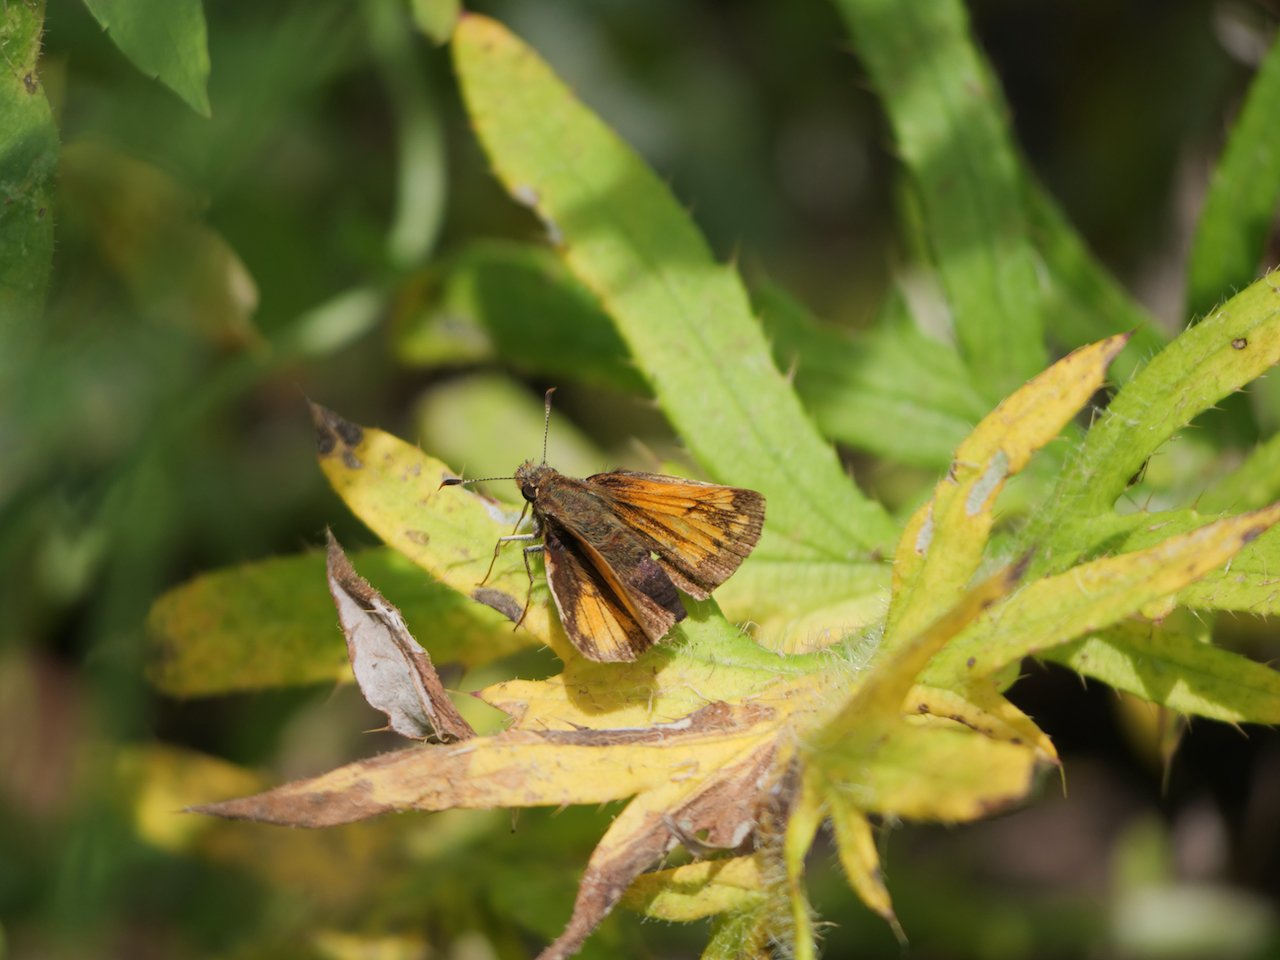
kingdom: Animalia
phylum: Arthropoda
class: Insecta
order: Lepidoptera
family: Hesperiidae
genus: Lon
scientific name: Lon hobomok
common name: Hobomok Skipper
